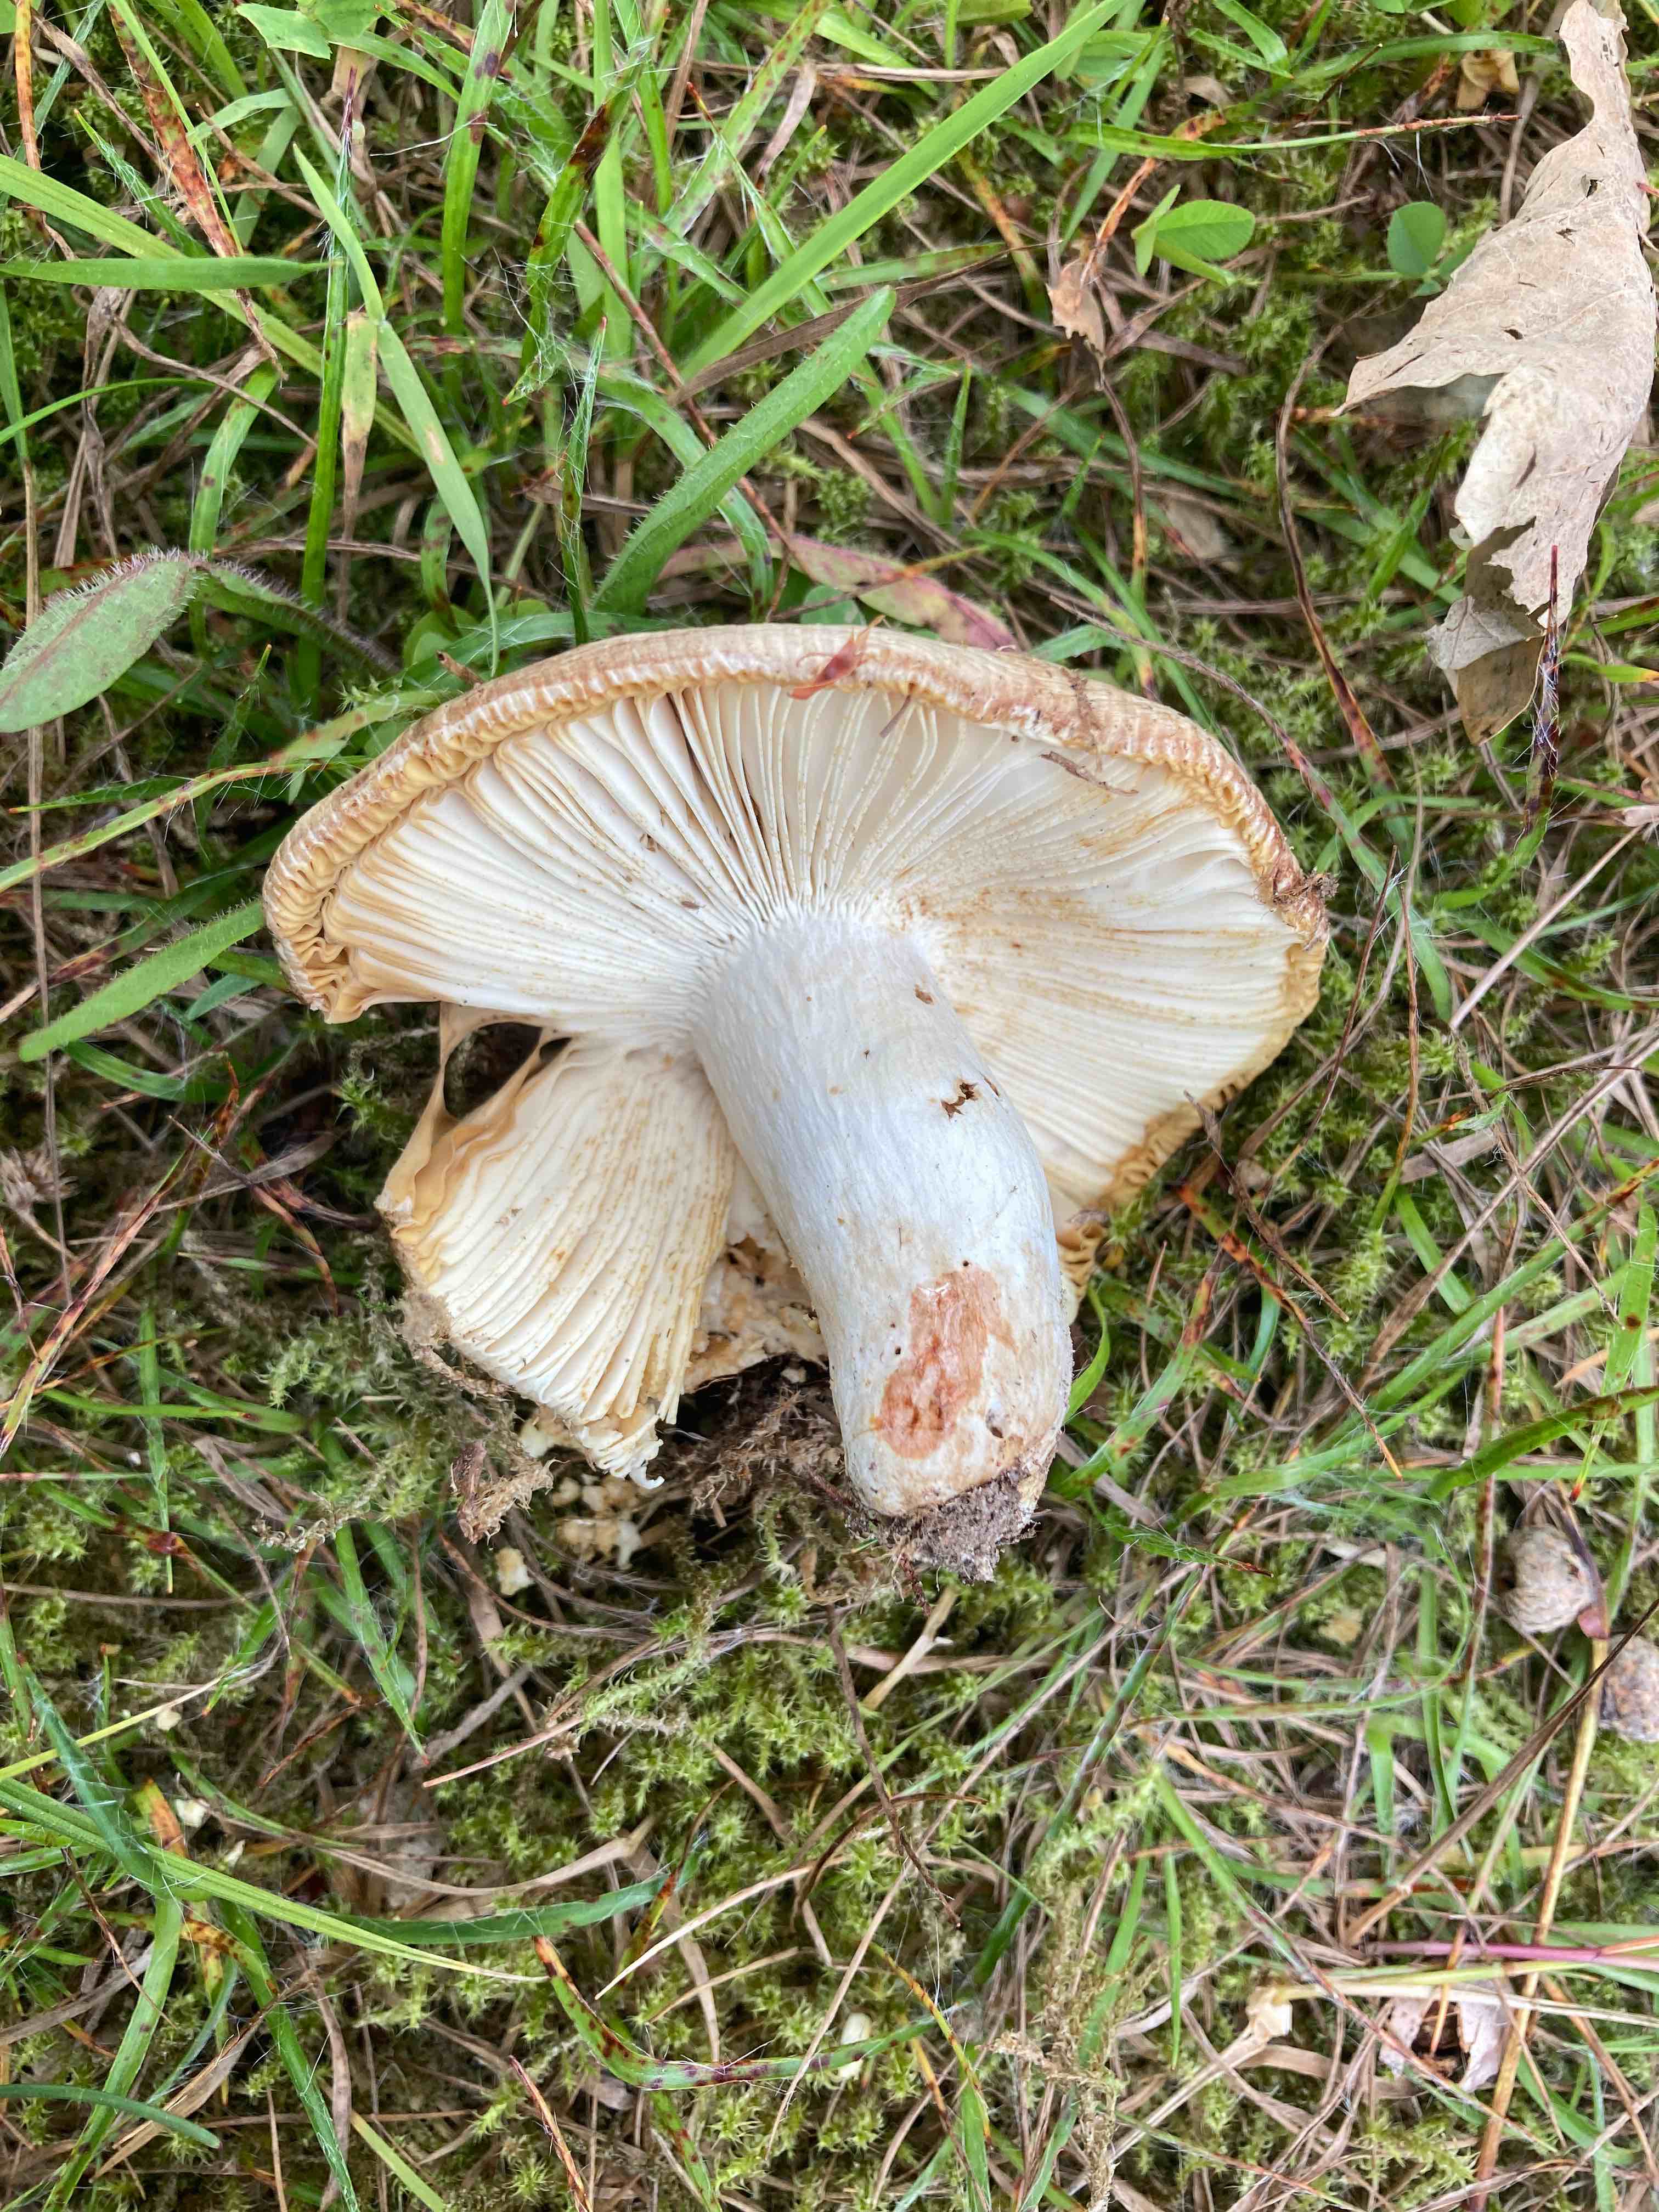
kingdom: Fungi
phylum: Basidiomycota
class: Agaricomycetes
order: Russulales
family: Russulaceae
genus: Russula
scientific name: Russula insignis
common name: gulfodet kam-skørhat
